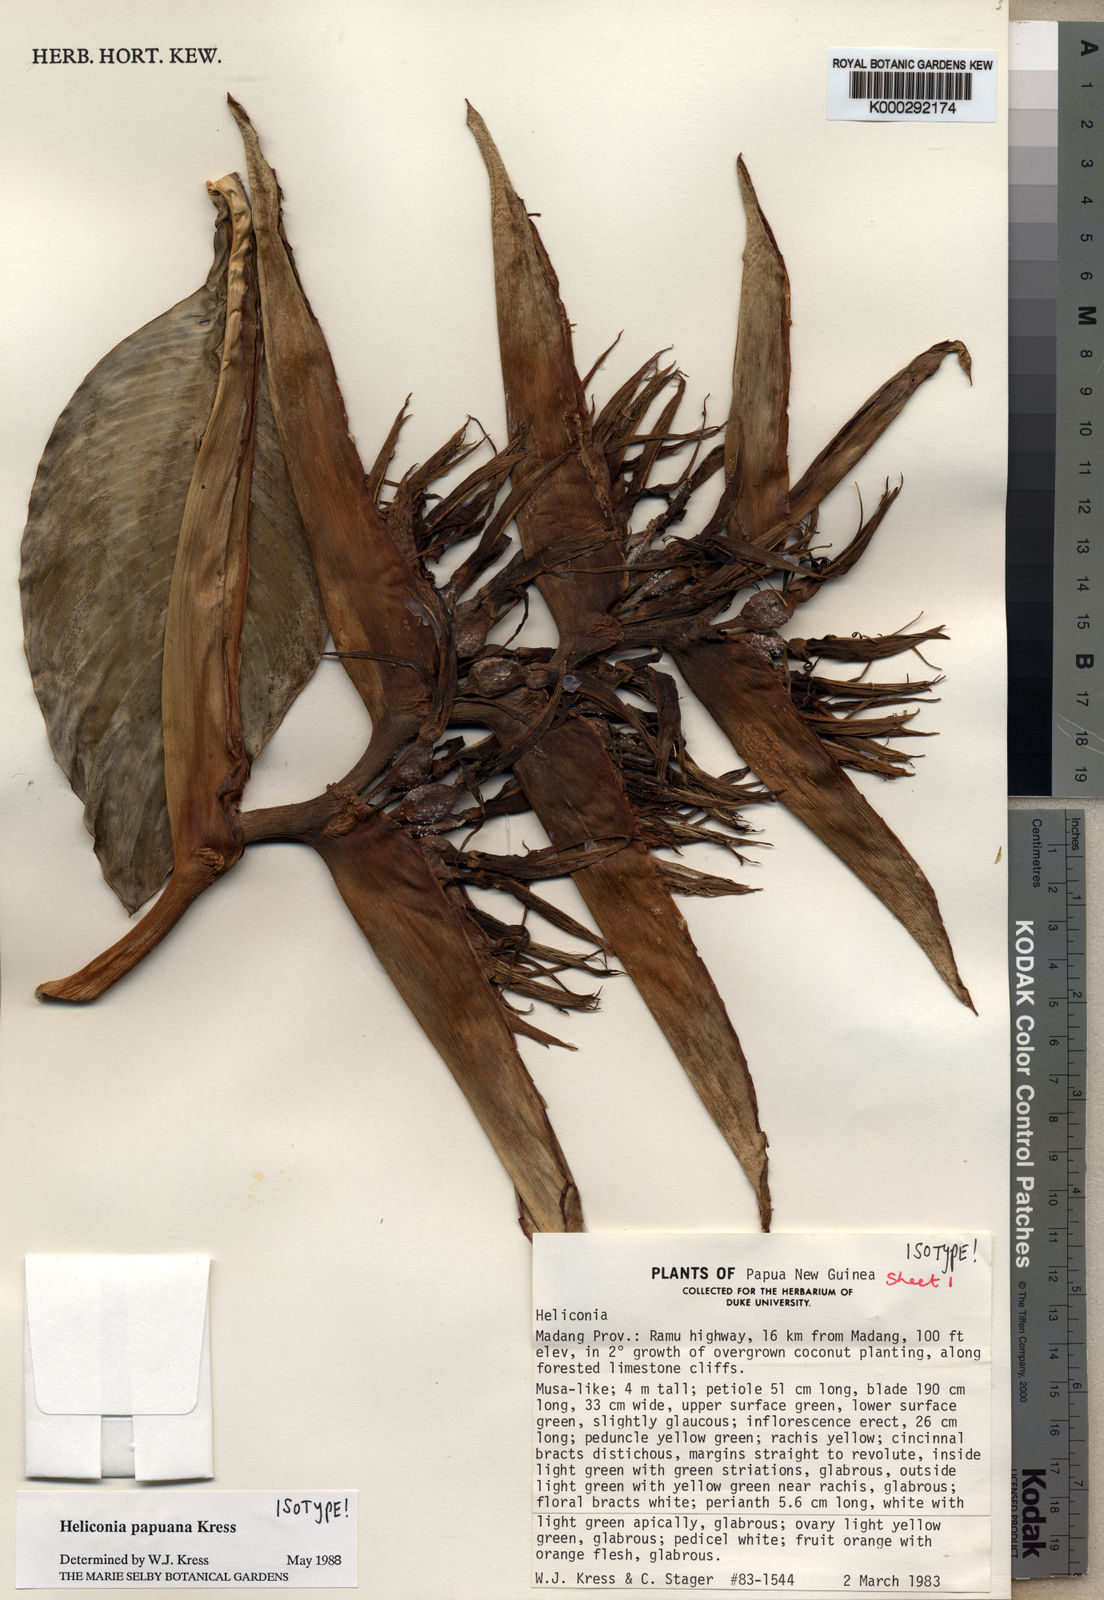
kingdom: Plantae
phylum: Tracheophyta
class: Liliopsida
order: Zingiberales
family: Heliconiaceae
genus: Heliconia
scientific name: Heliconia papuana
